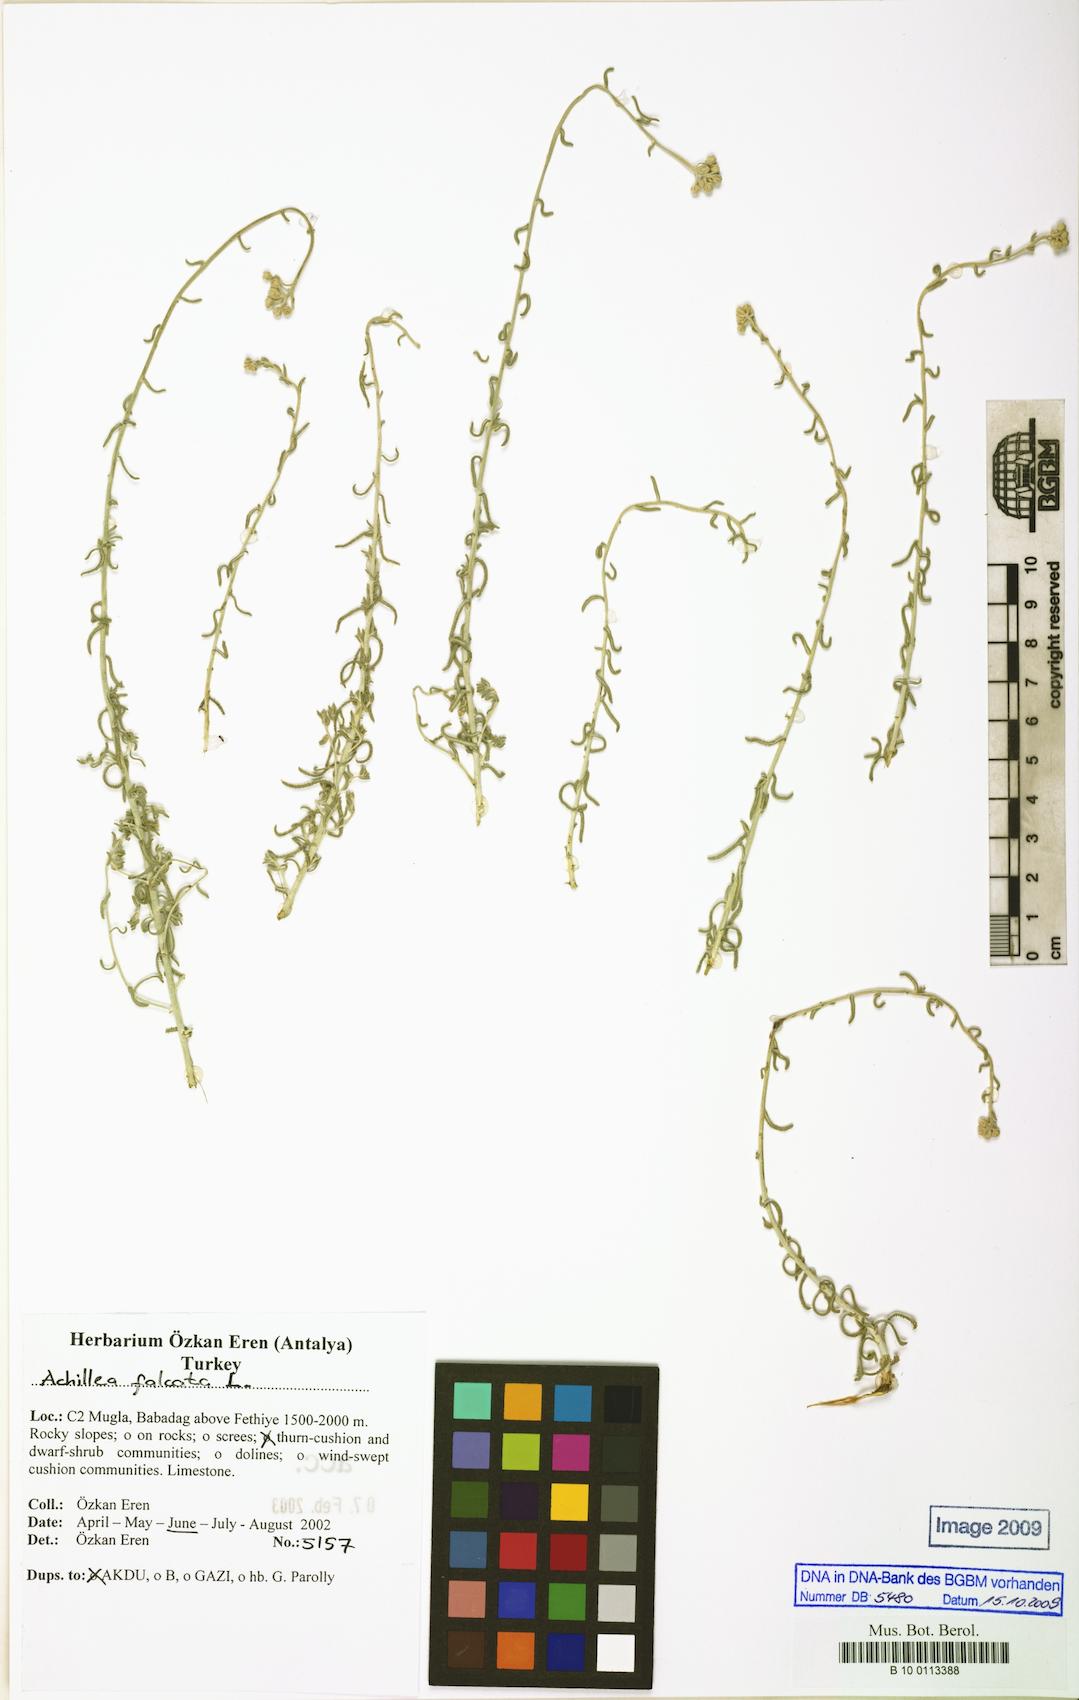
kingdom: Plantae
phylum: Tracheophyta
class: Magnoliopsida
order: Asterales
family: Asteraceae
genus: Achillea
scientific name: Achillea falcata
